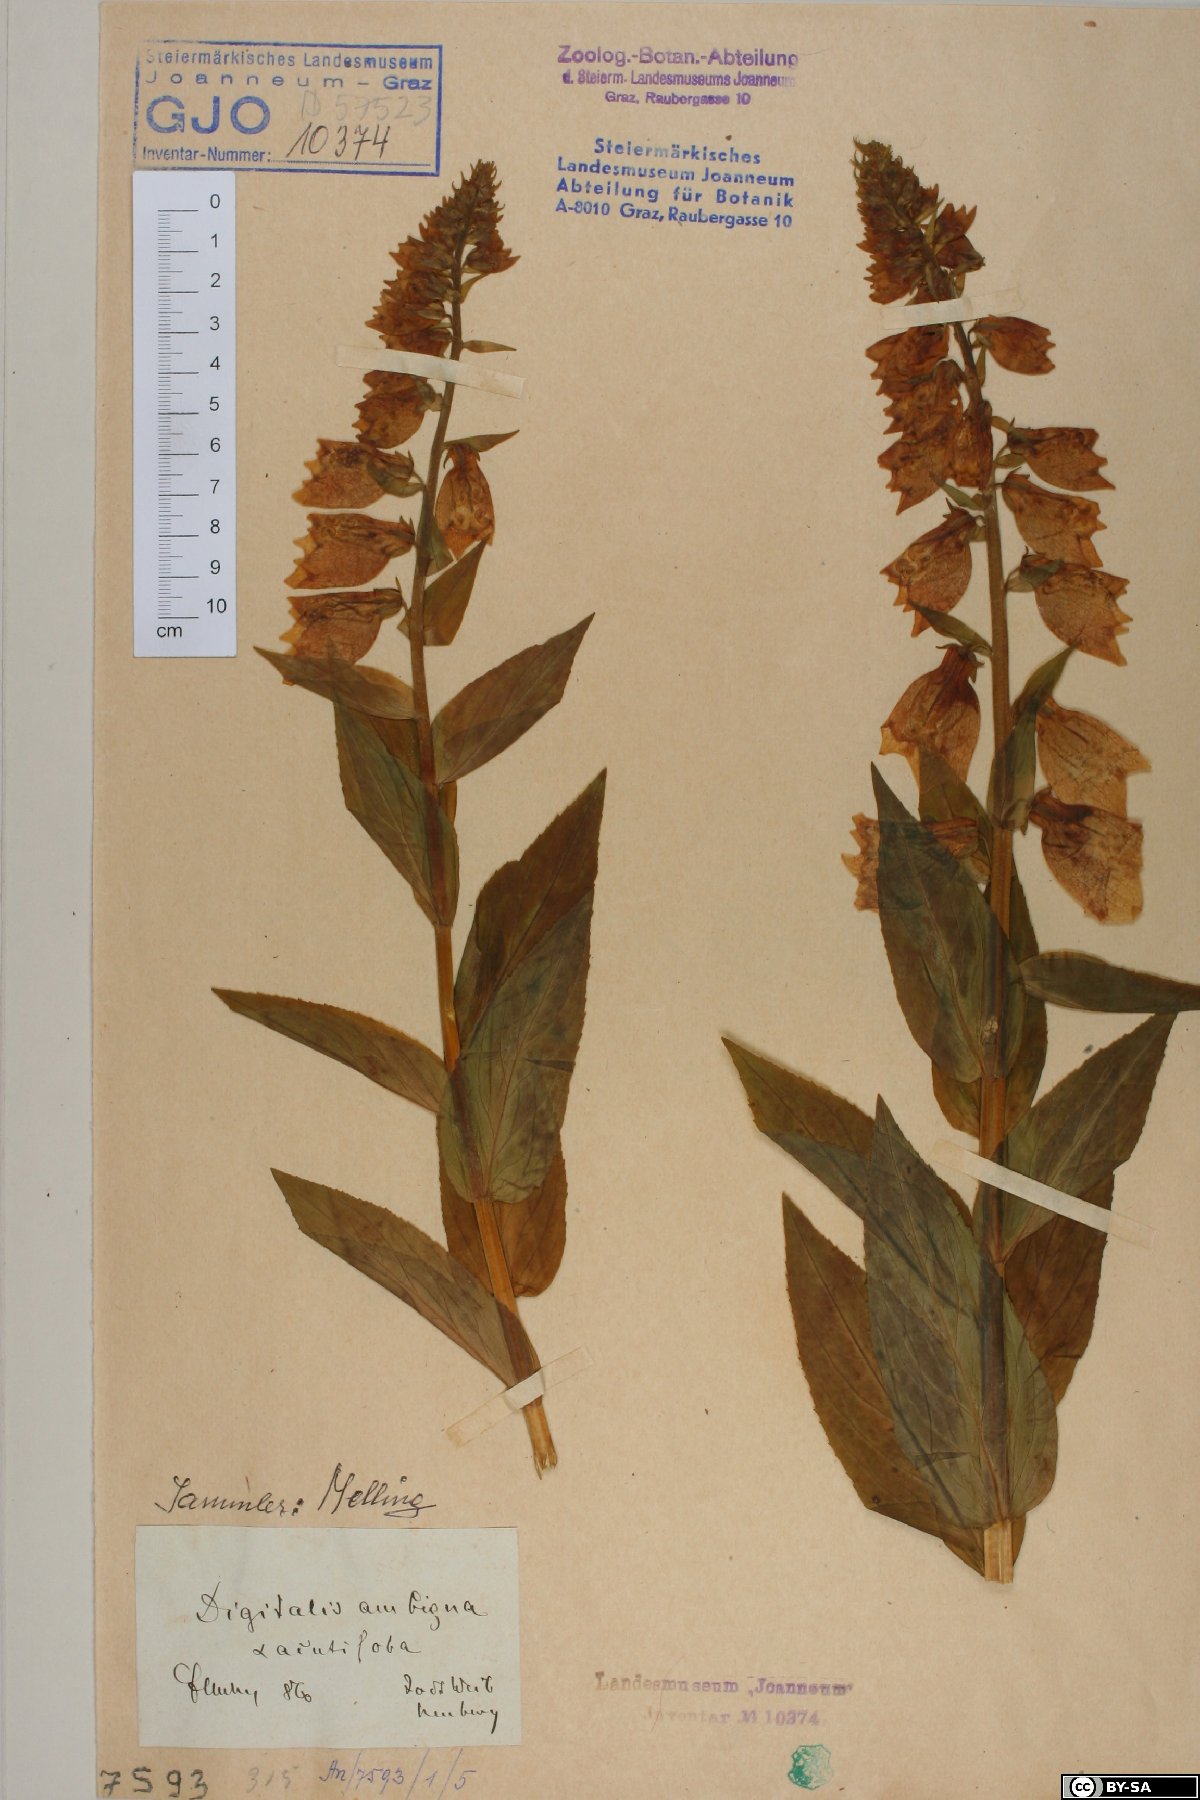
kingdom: Plantae
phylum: Tracheophyta
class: Magnoliopsida
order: Lamiales
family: Plantaginaceae
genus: Digitalis
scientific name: Digitalis grandiflora
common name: Yellow foxglove
